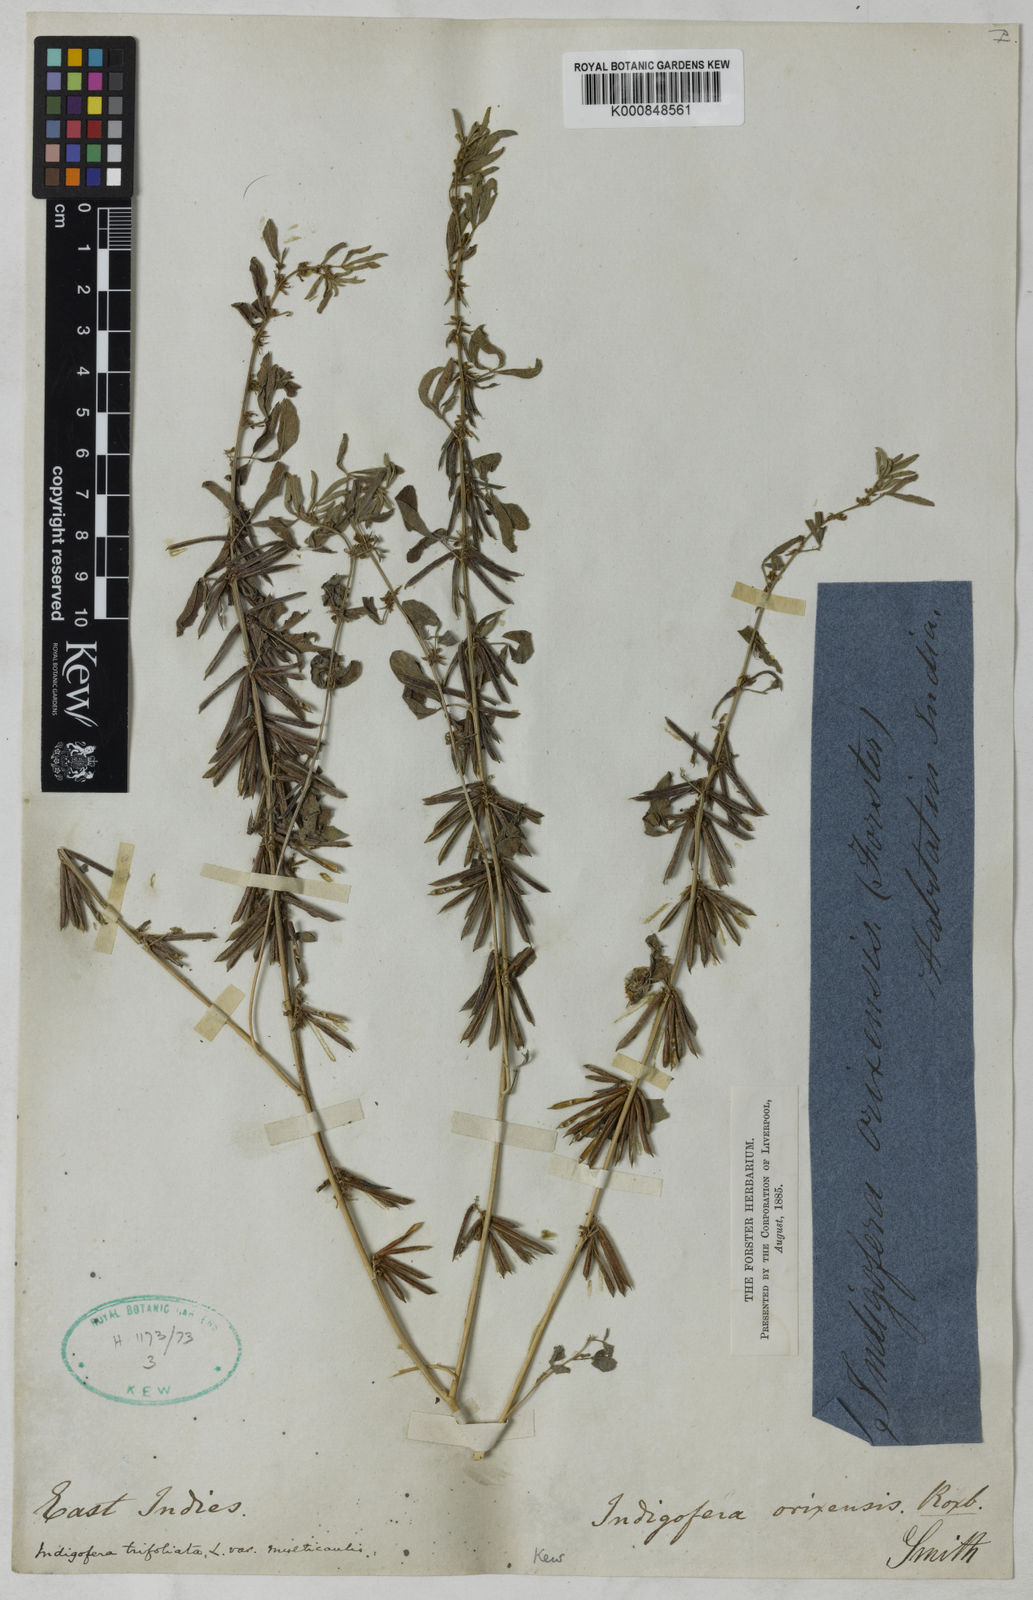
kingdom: Plantae
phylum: Tracheophyta
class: Magnoliopsida
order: Fabales
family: Fabaceae
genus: Indigofera
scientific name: Indigofera trifoliata
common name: Threeleaf indigo
